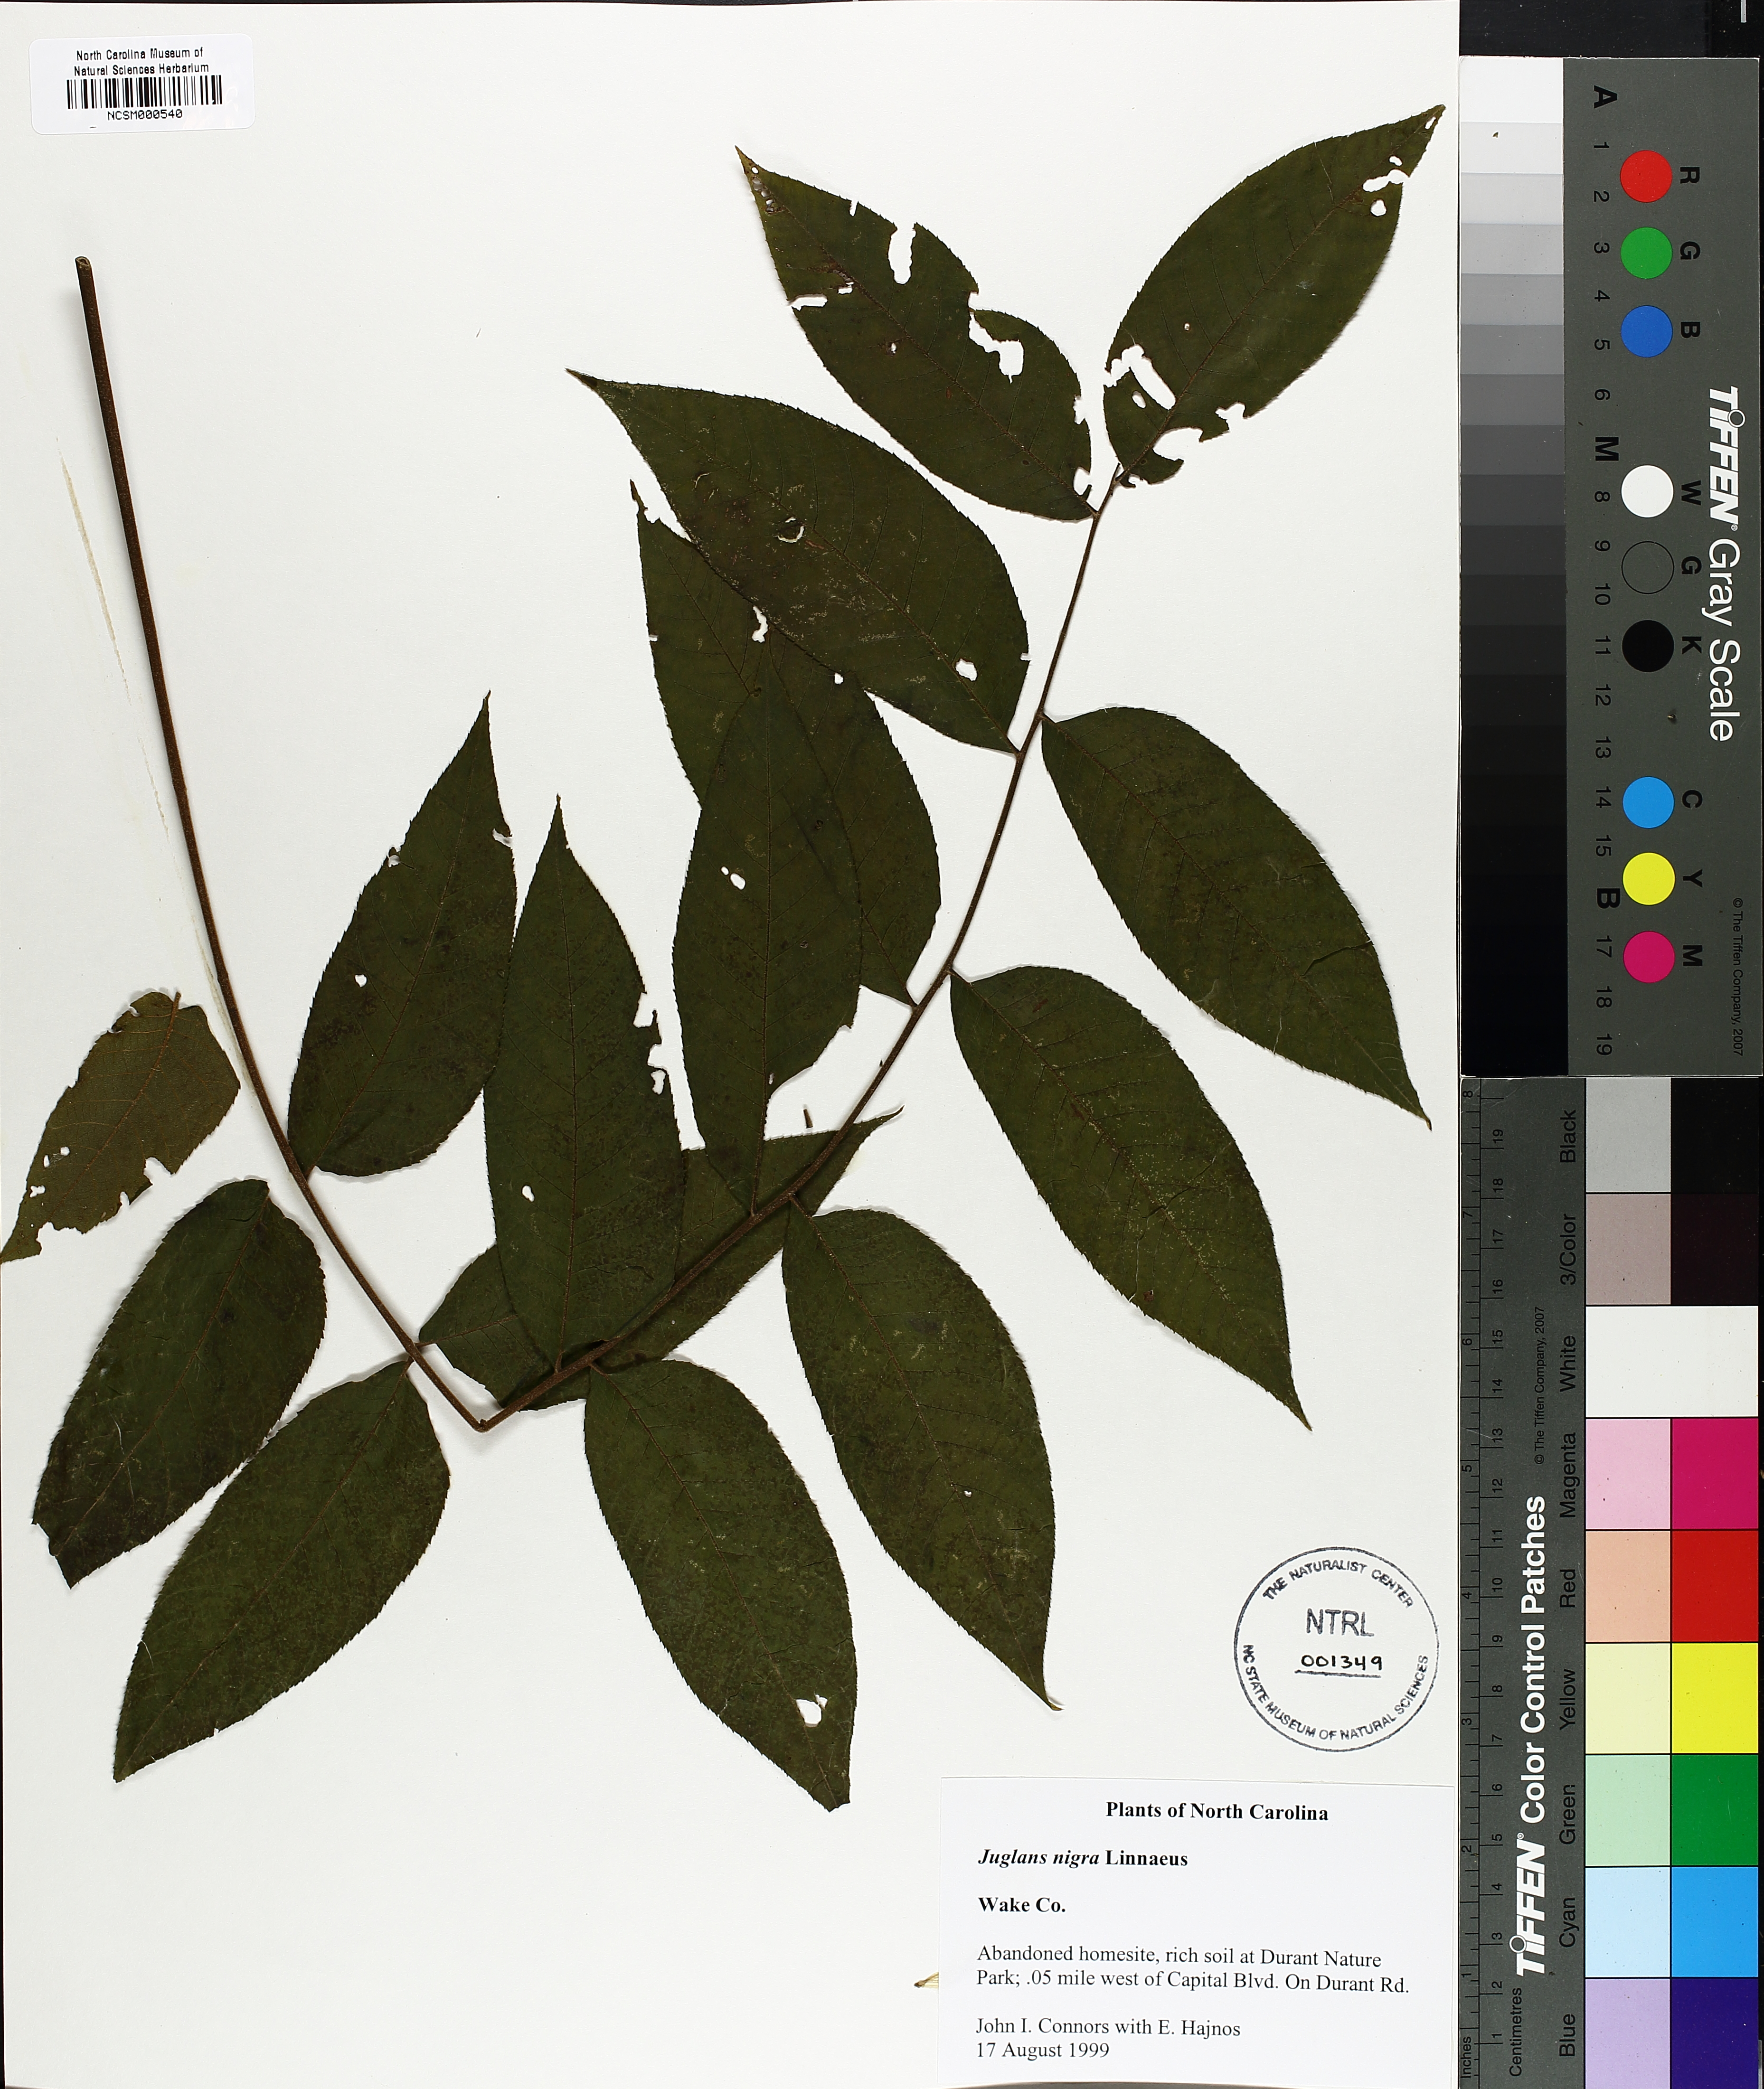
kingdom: Plantae
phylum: Tracheophyta
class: Magnoliopsida
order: Fagales
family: Juglandaceae
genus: Juglans
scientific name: Juglans nigra
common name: Black walnut
